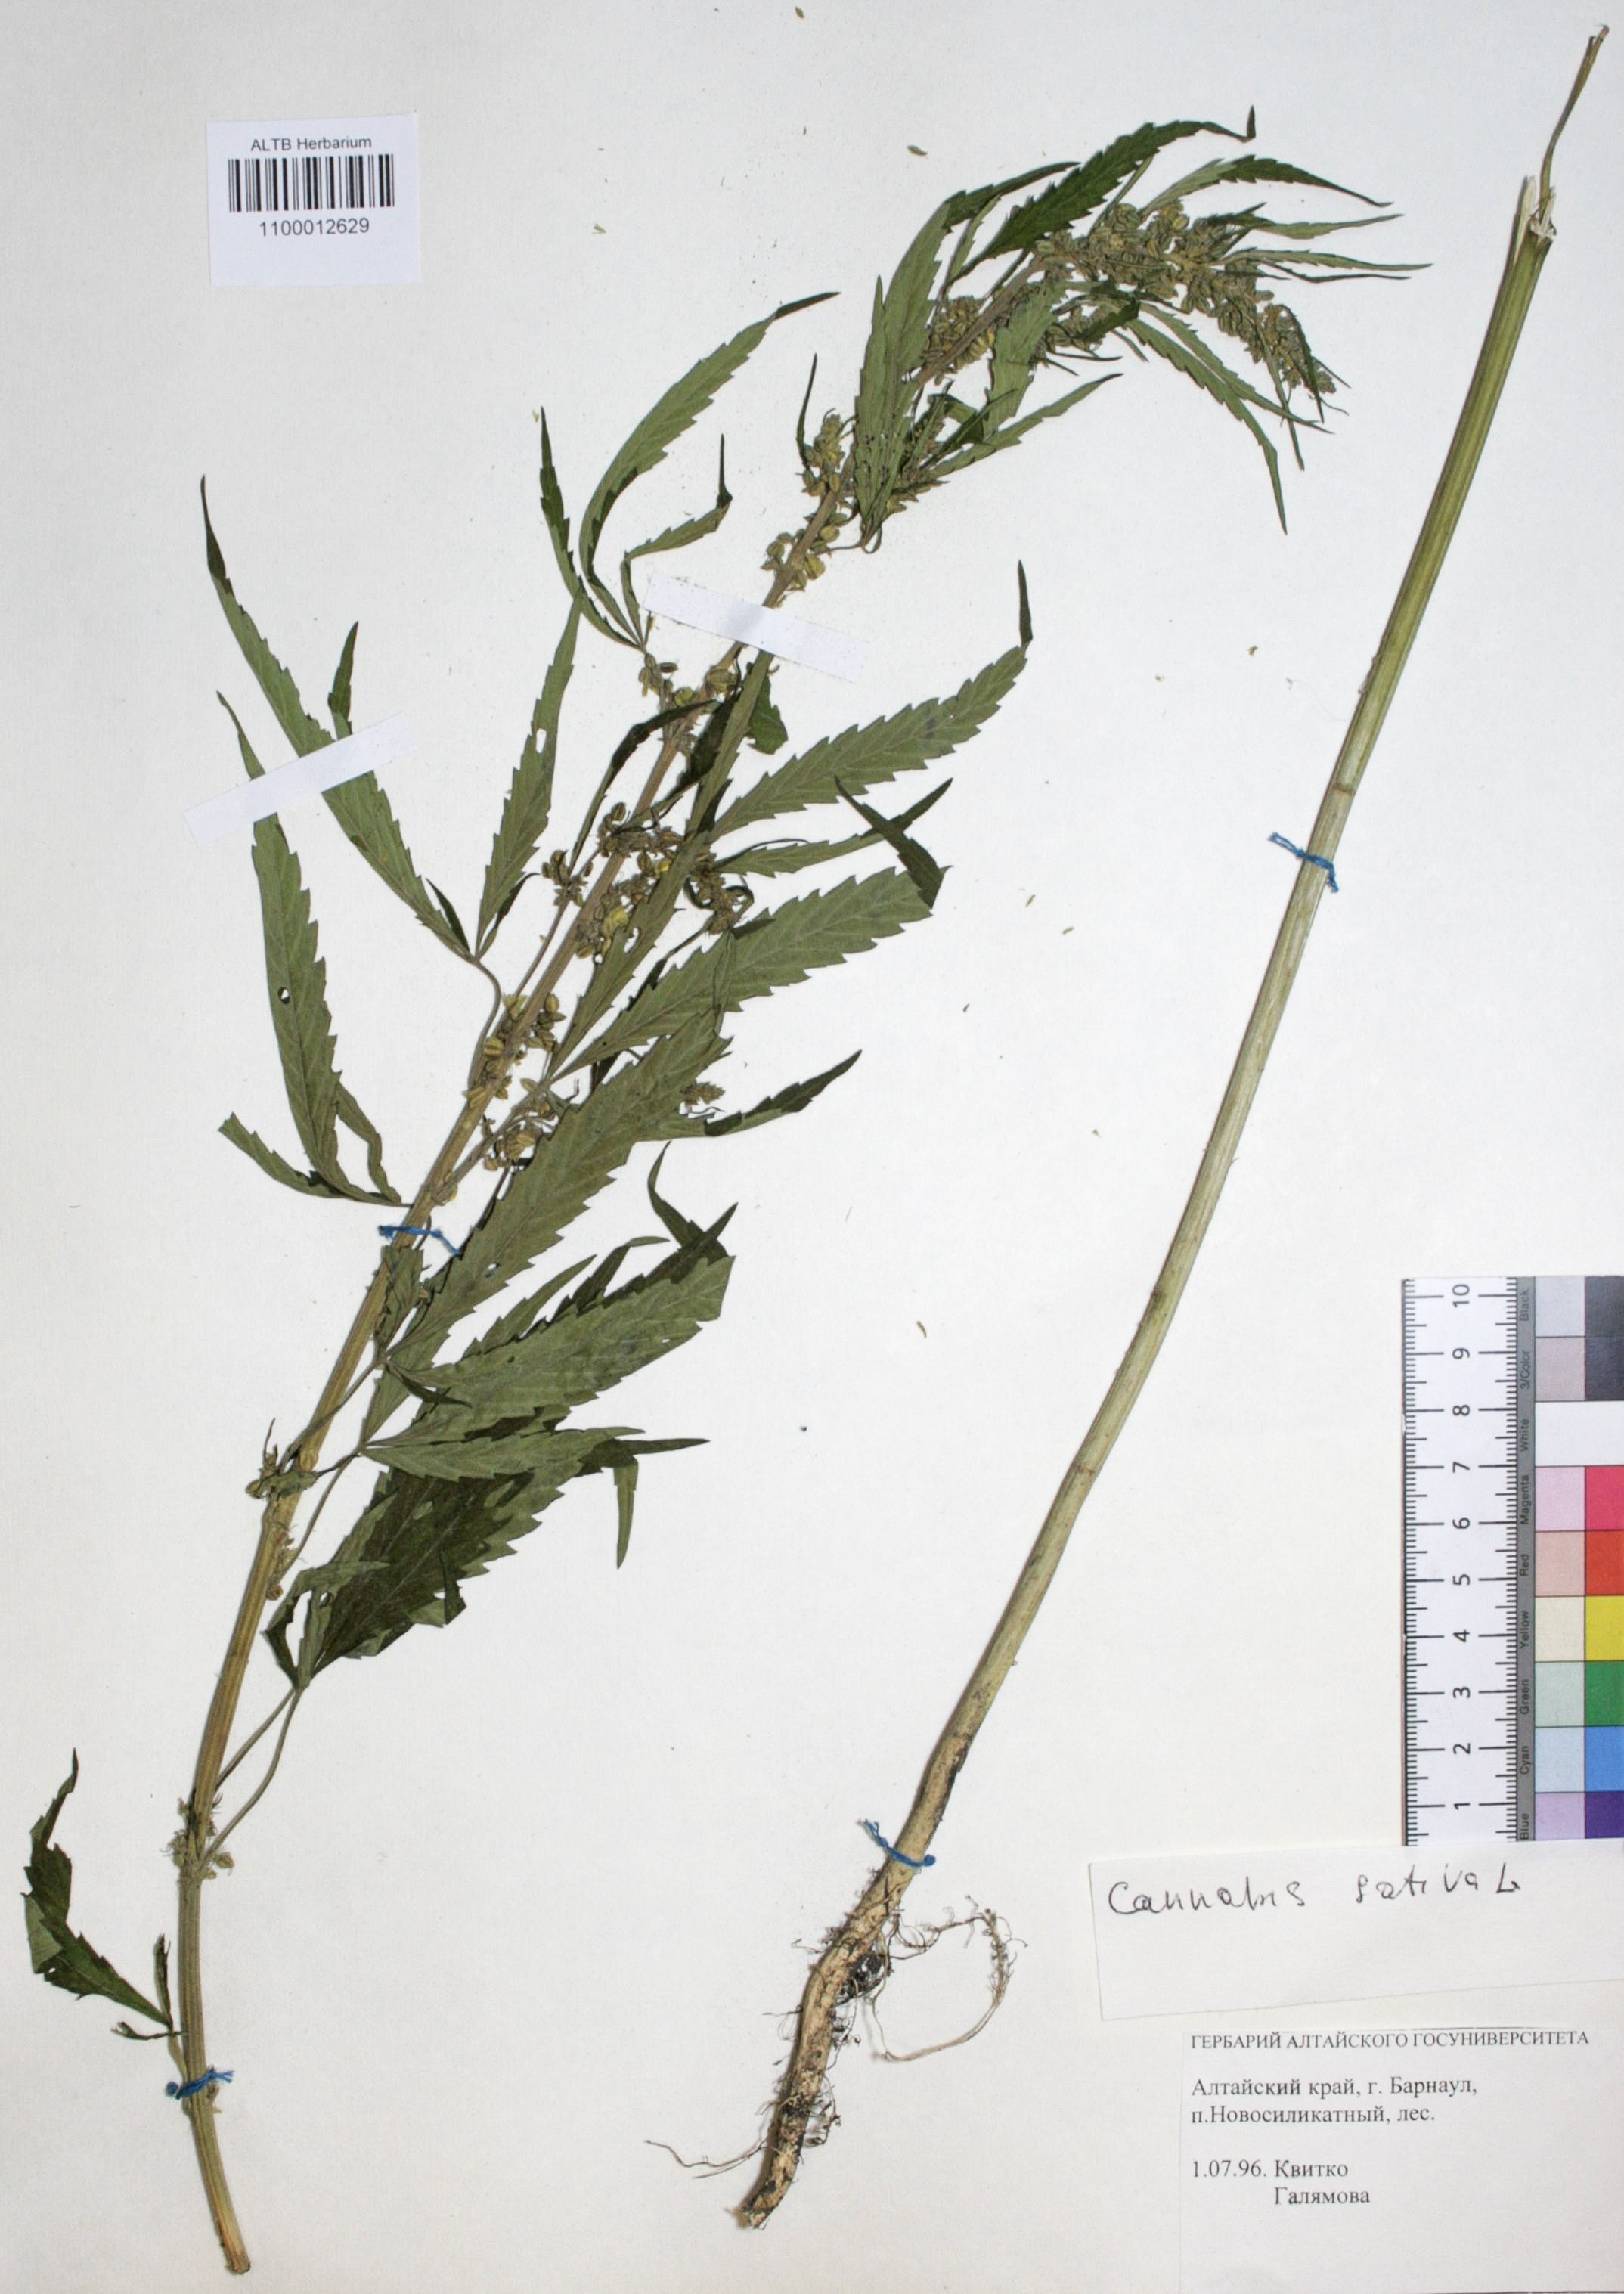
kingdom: Plantae
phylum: Tracheophyta
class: Magnoliopsida
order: Rosales
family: Cannabaceae
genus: Cannabis
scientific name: Cannabis sativa
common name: Hemp
